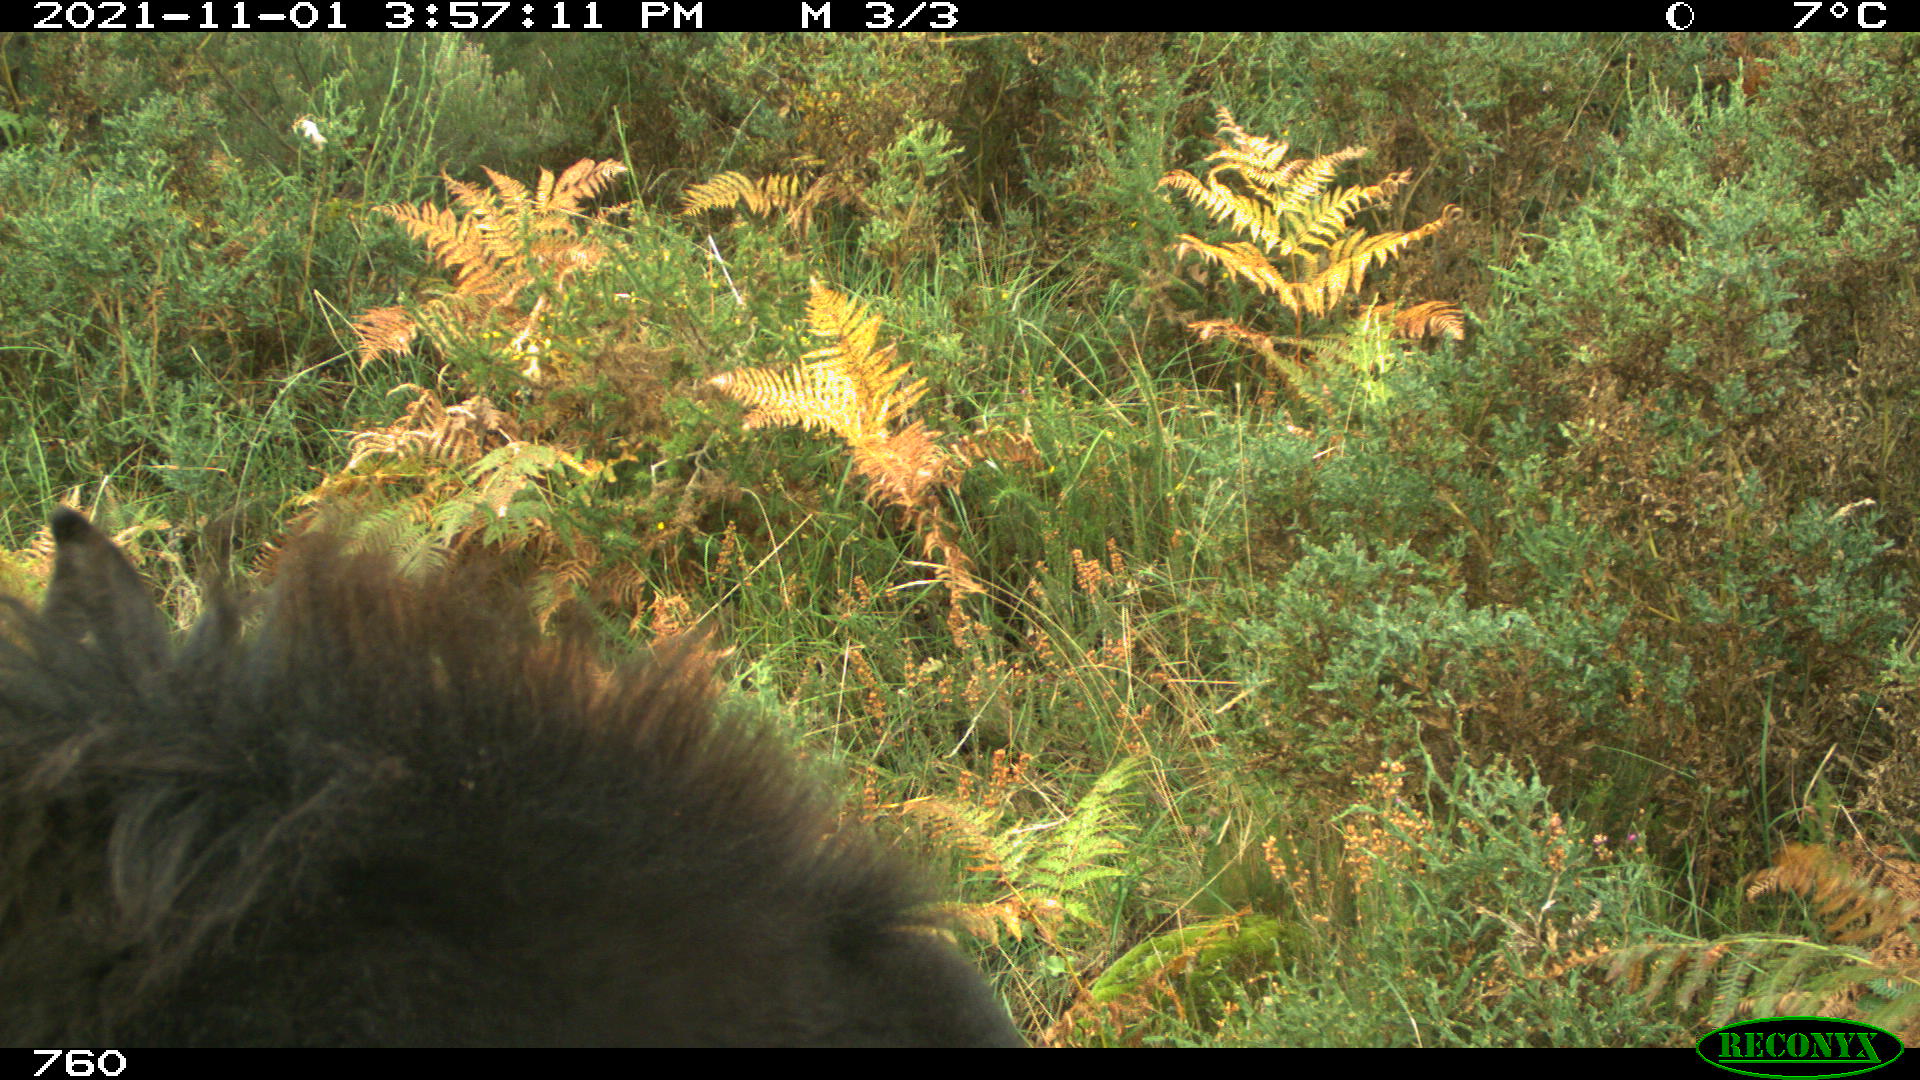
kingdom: Animalia
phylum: Chordata
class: Mammalia
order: Perissodactyla
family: Equidae
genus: Equus
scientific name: Equus caballus
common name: Horse
